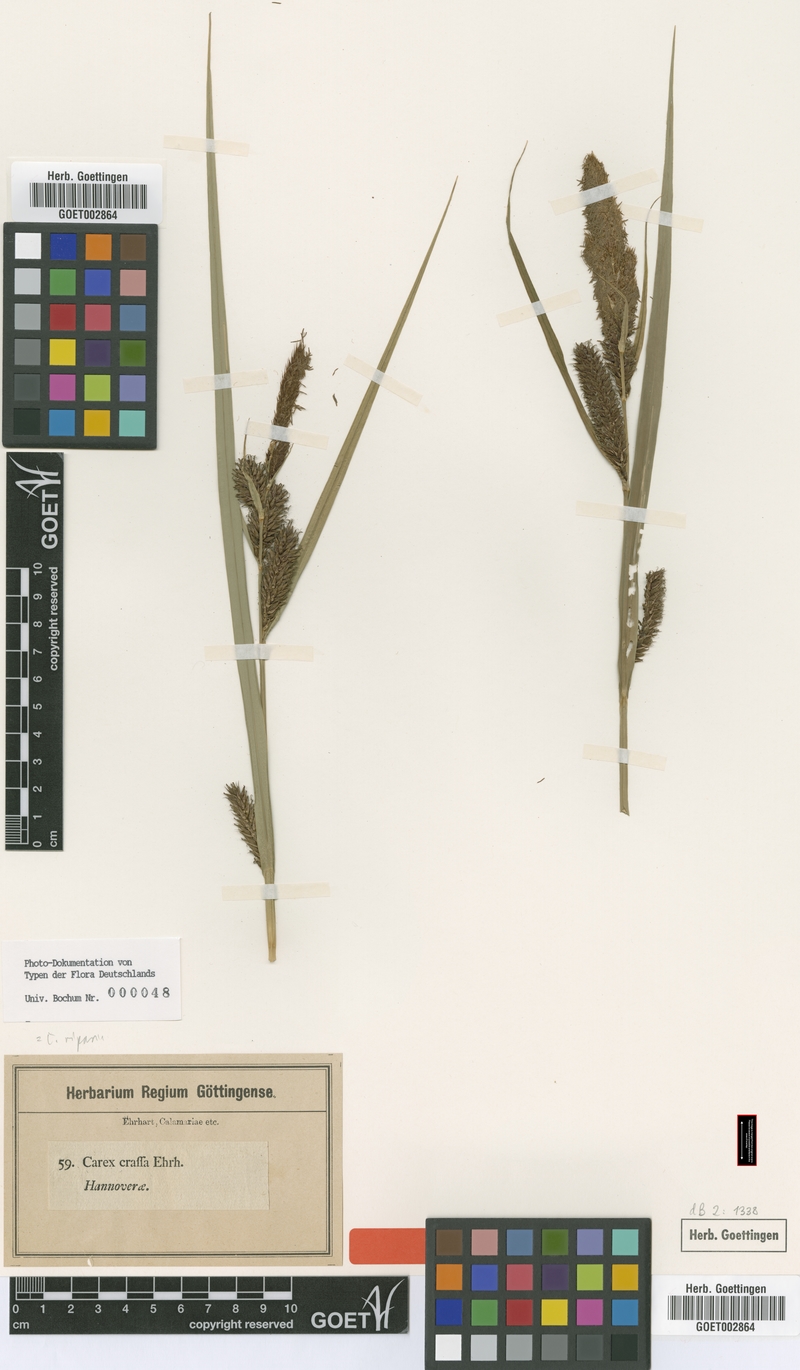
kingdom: Plantae
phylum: Tracheophyta
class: Liliopsida
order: Poales
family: Cyperaceae
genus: Carex
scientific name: Carex riparia
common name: Greater pond-sedge
